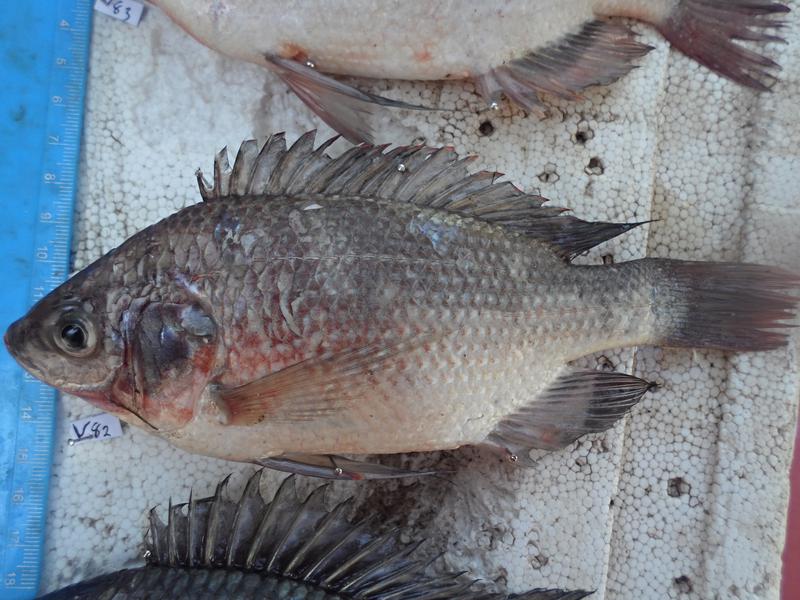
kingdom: Animalia
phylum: Chordata
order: Perciformes
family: Cichlidae
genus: Oreochromis
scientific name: Oreochromis esculentus
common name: Carp
